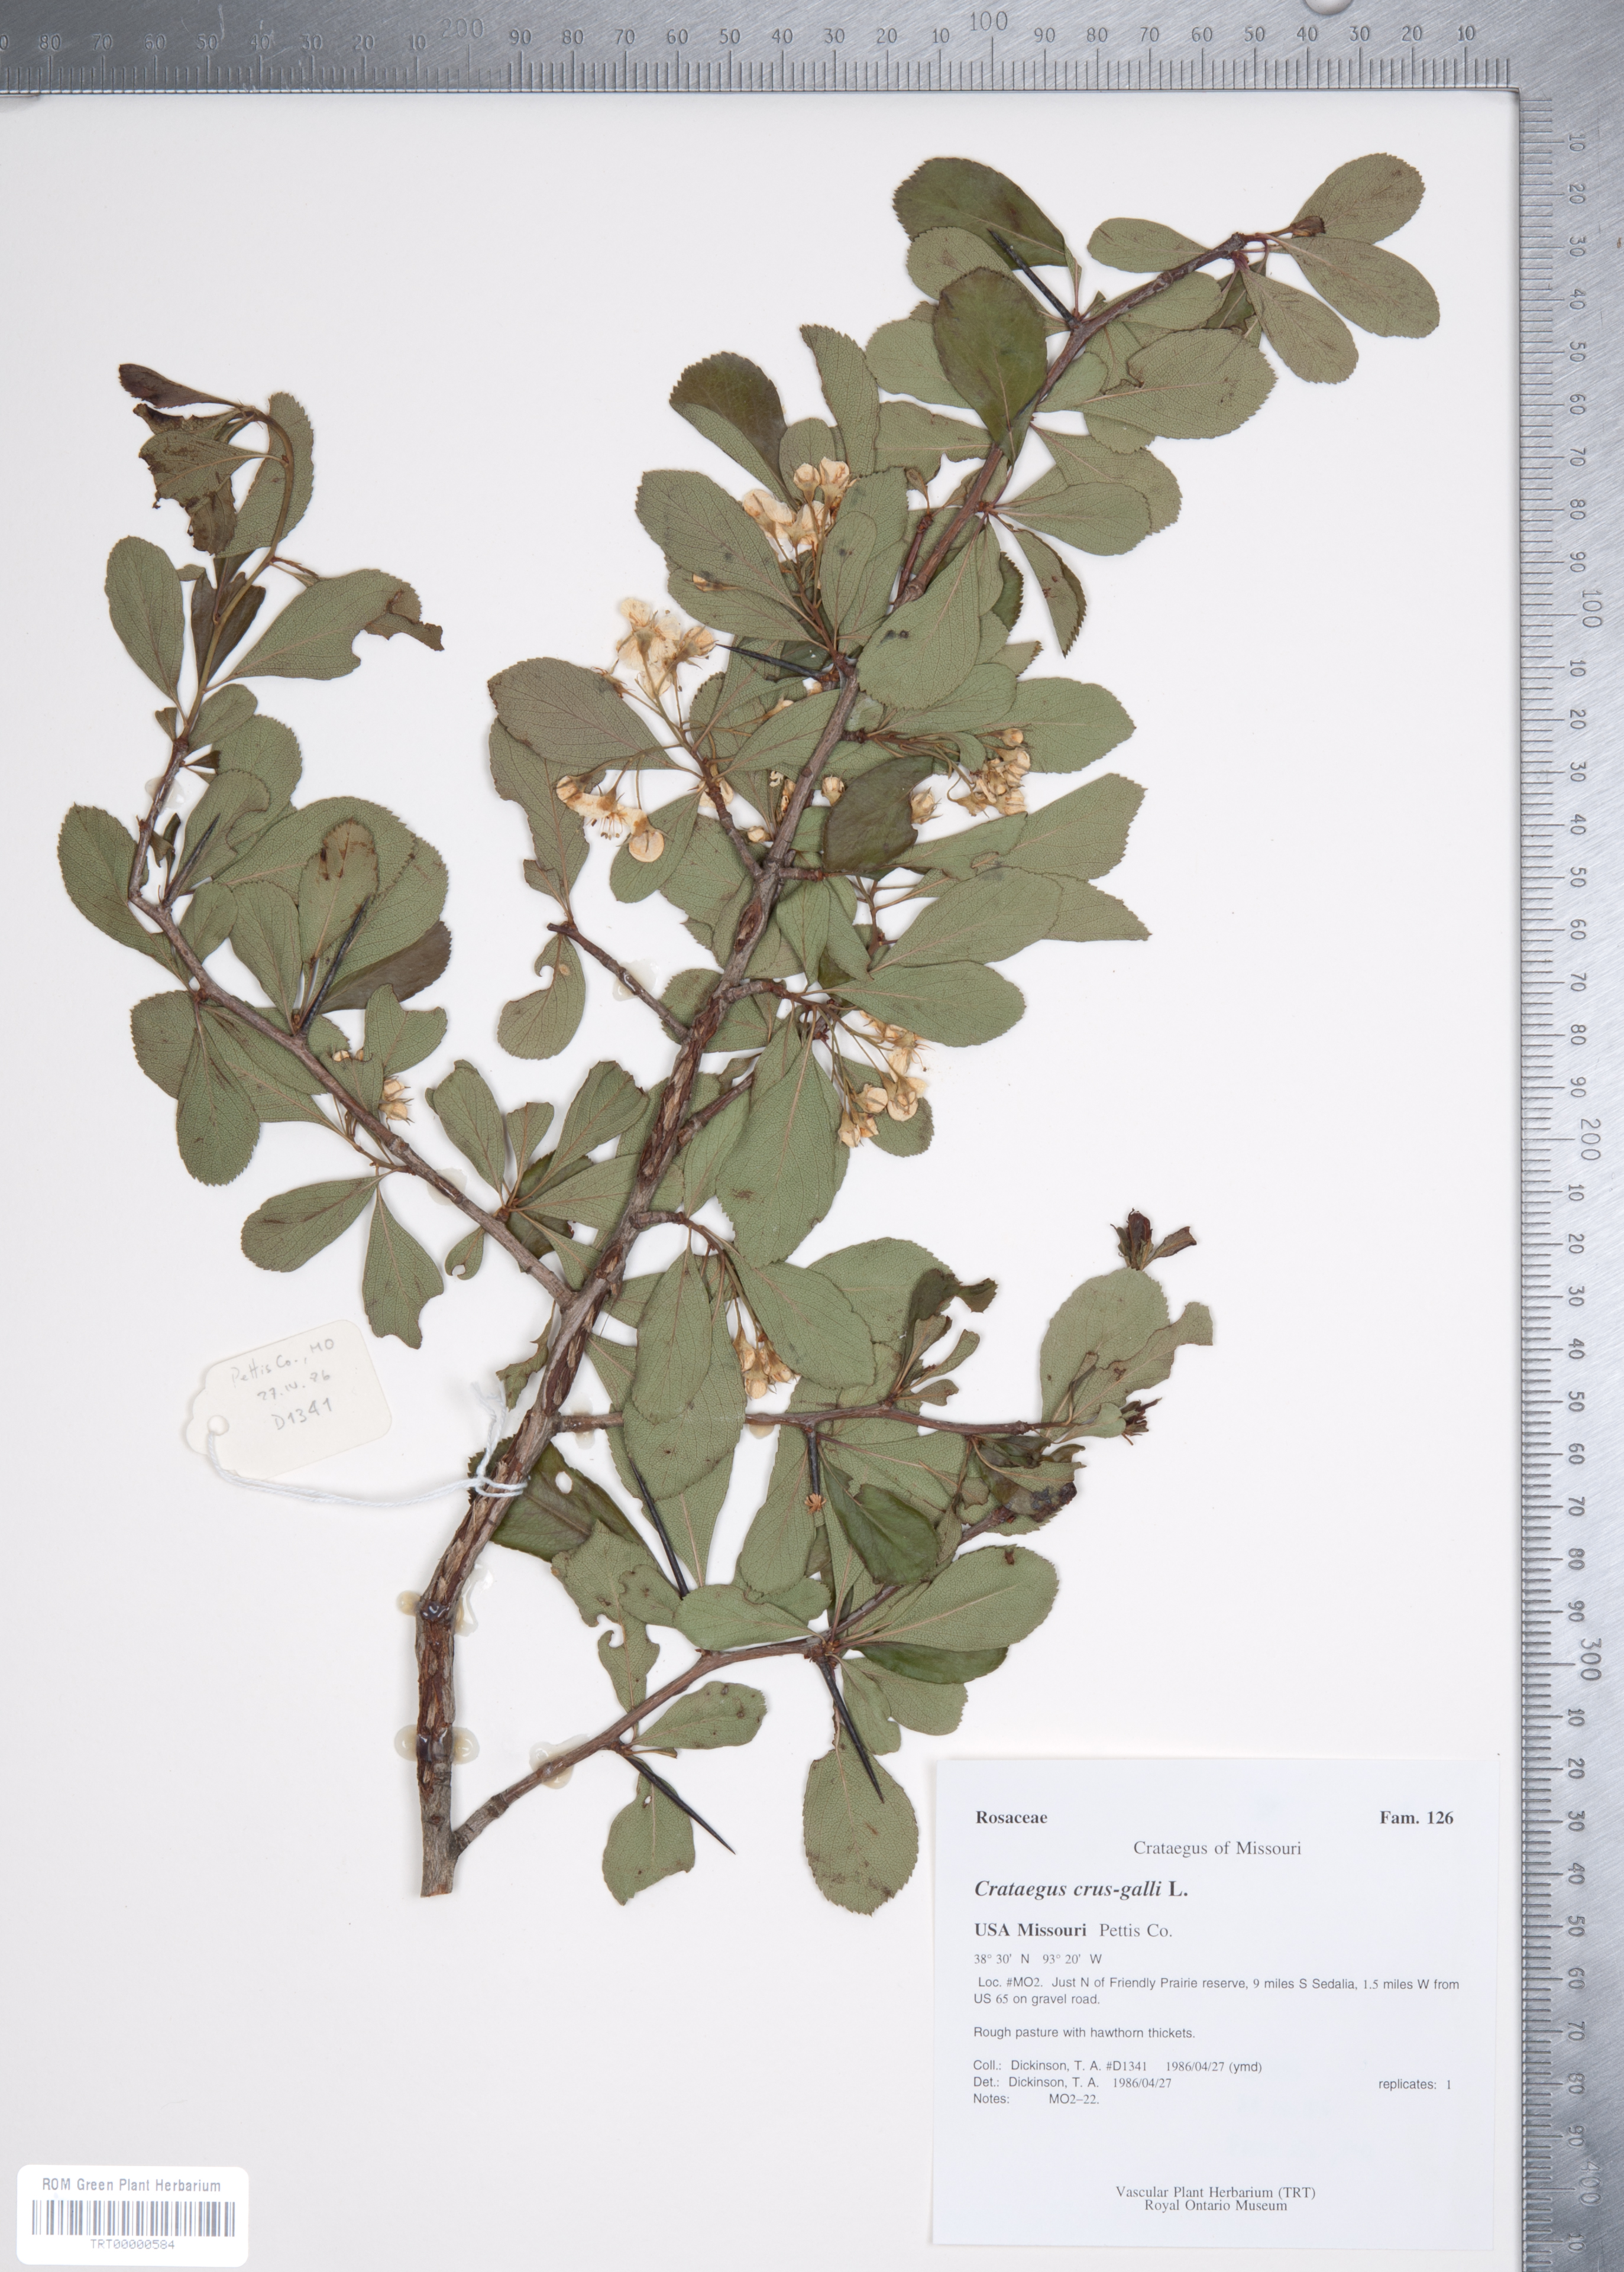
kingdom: Plantae
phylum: Tracheophyta
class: Magnoliopsida
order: Rosales
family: Rosaceae
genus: Crataegus
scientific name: Crataegus crus-galli
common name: Cockspurthorn
